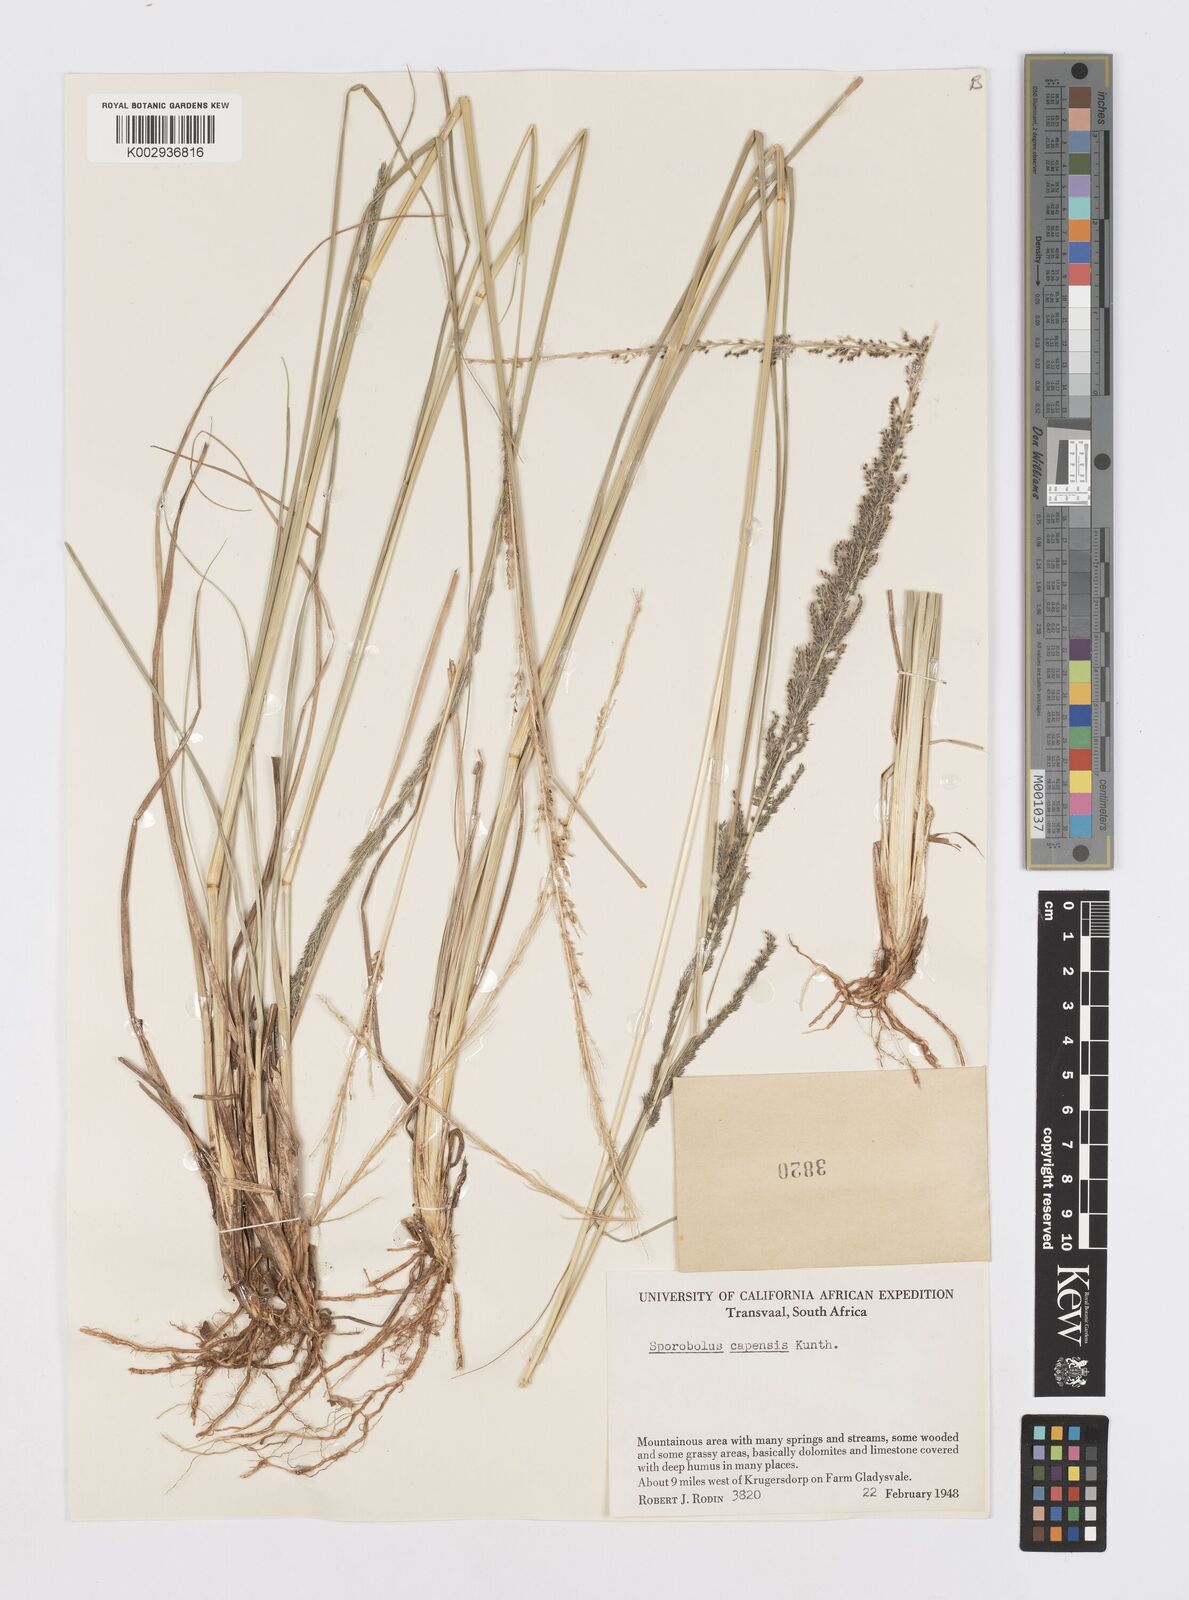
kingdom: Plantae
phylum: Tracheophyta
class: Liliopsida
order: Poales
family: Poaceae
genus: Sporobolus
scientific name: Sporobolus africanus
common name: African dropseed
